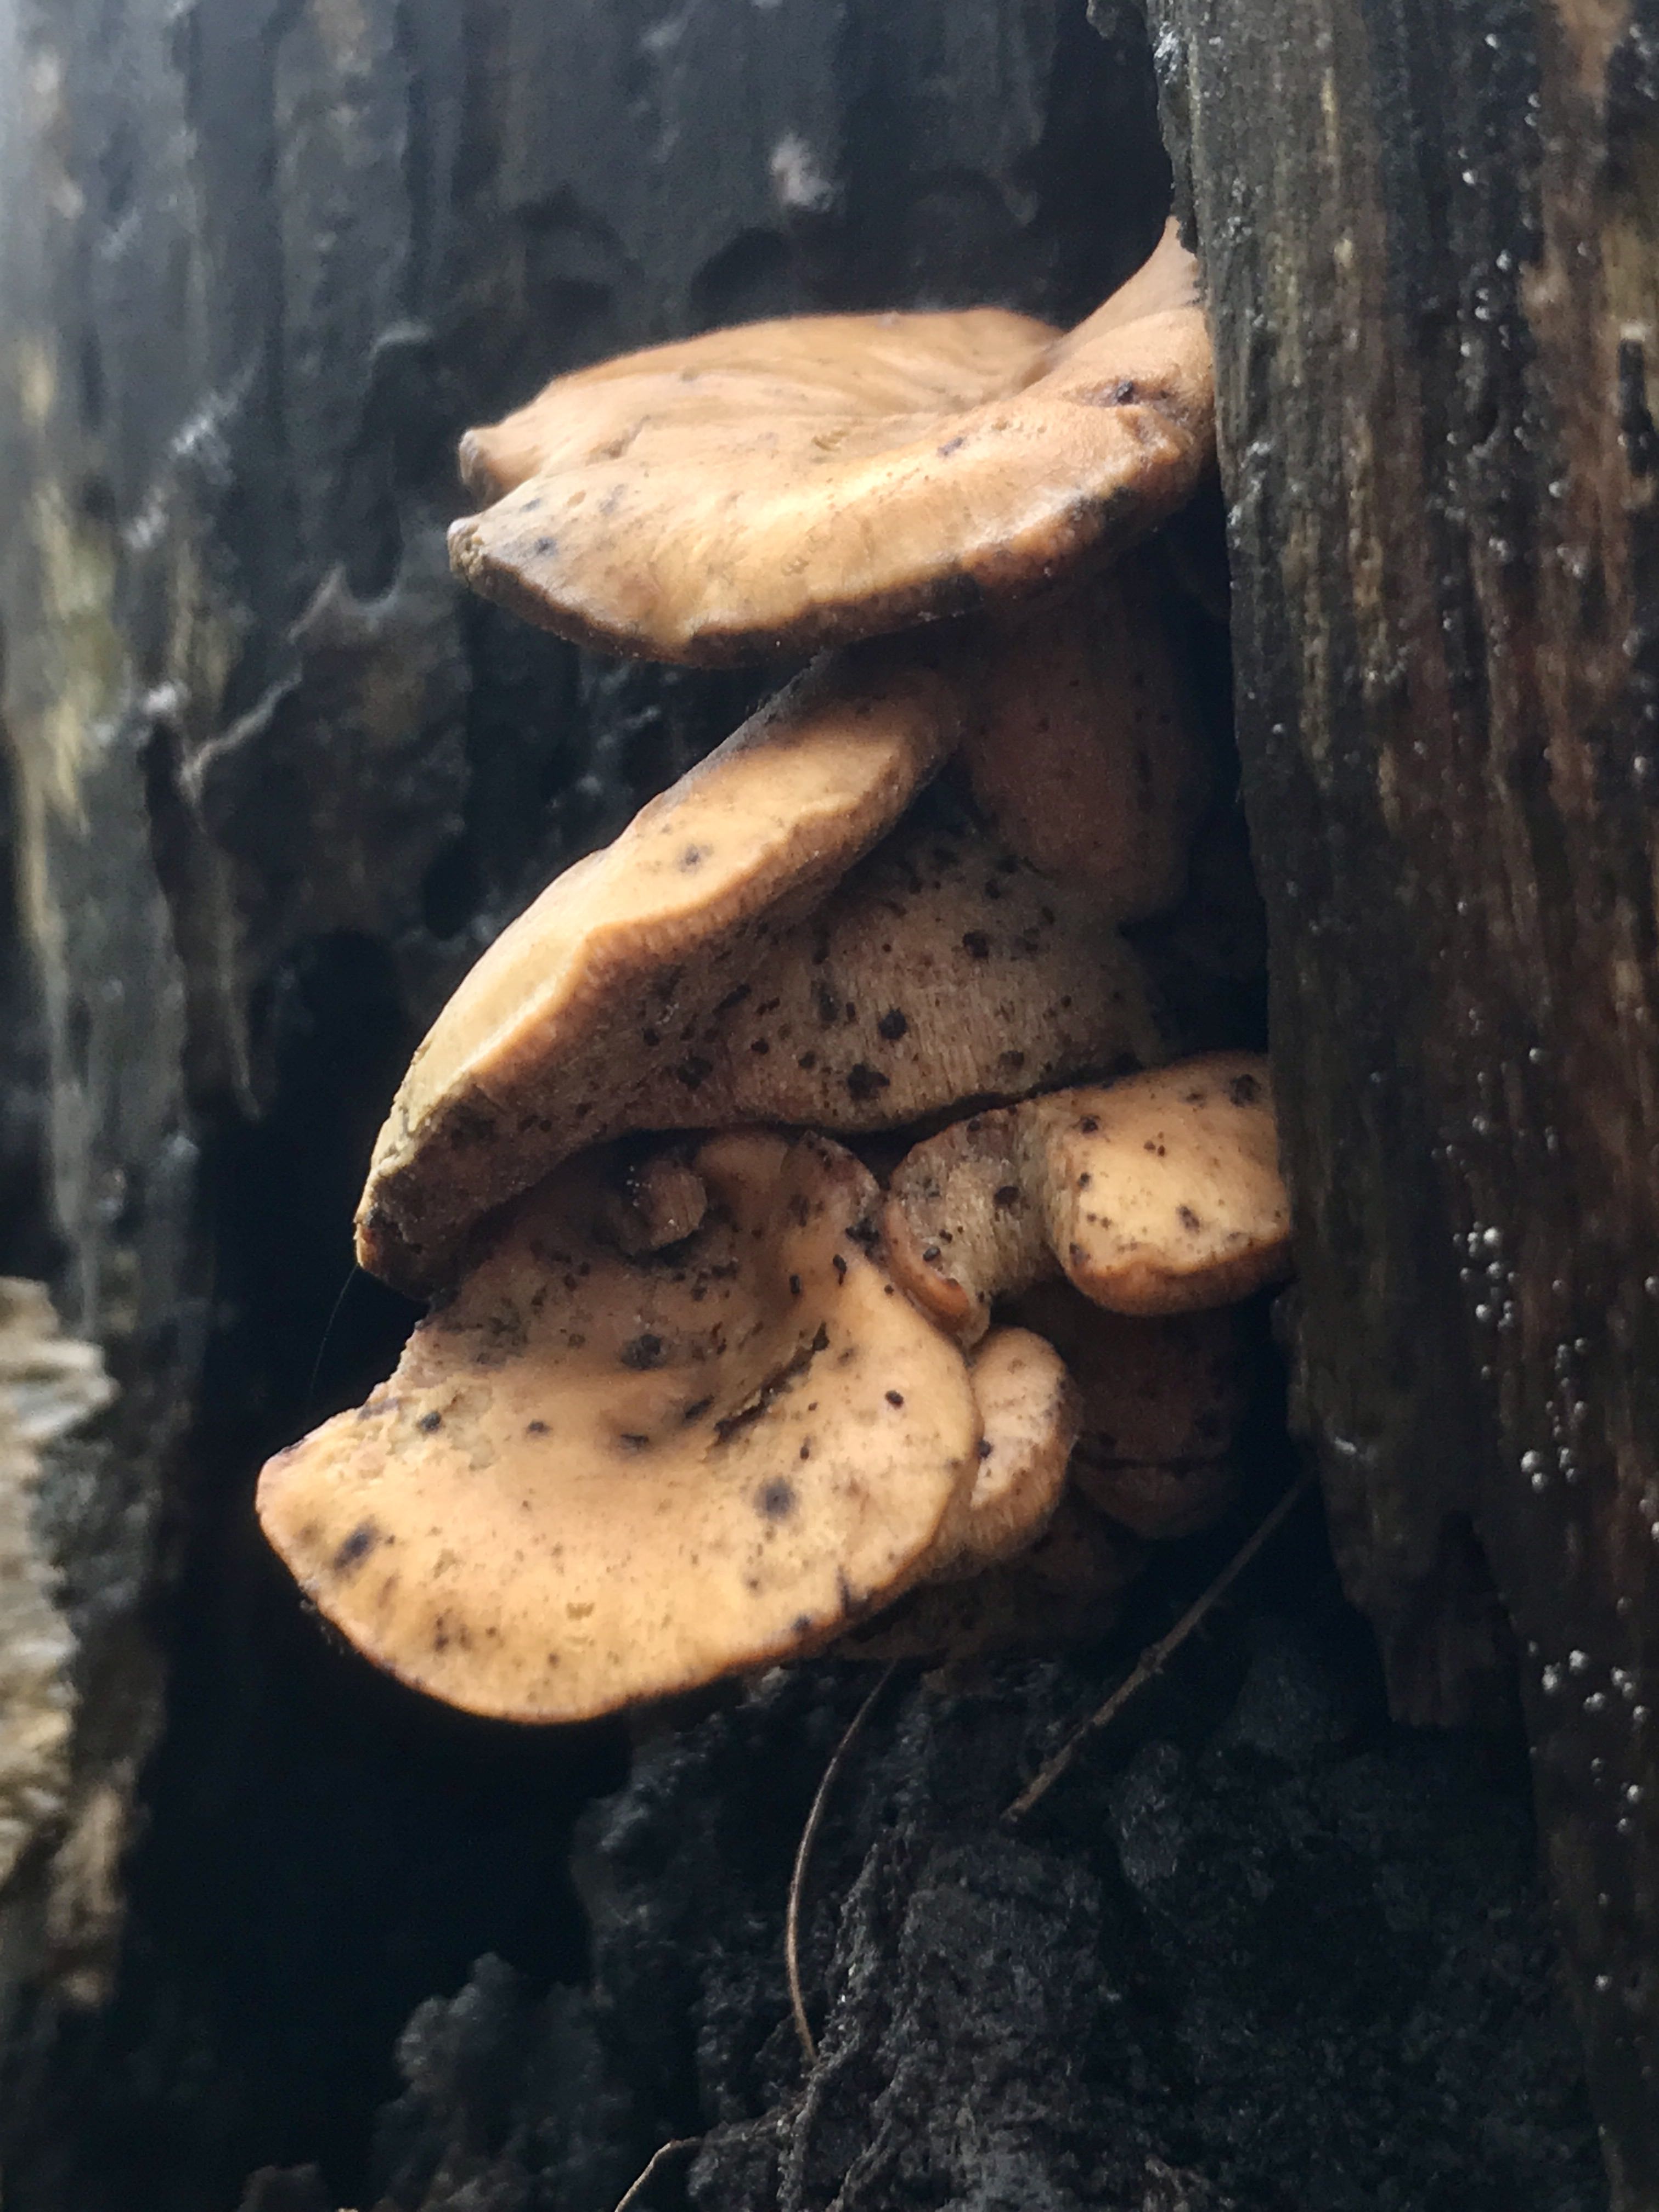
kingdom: Fungi
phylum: Basidiomycota
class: Agaricomycetes
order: Polyporales
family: Polyporaceae
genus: Cerioporus
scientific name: Cerioporus varius
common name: foranderlig stilkporesvamp
